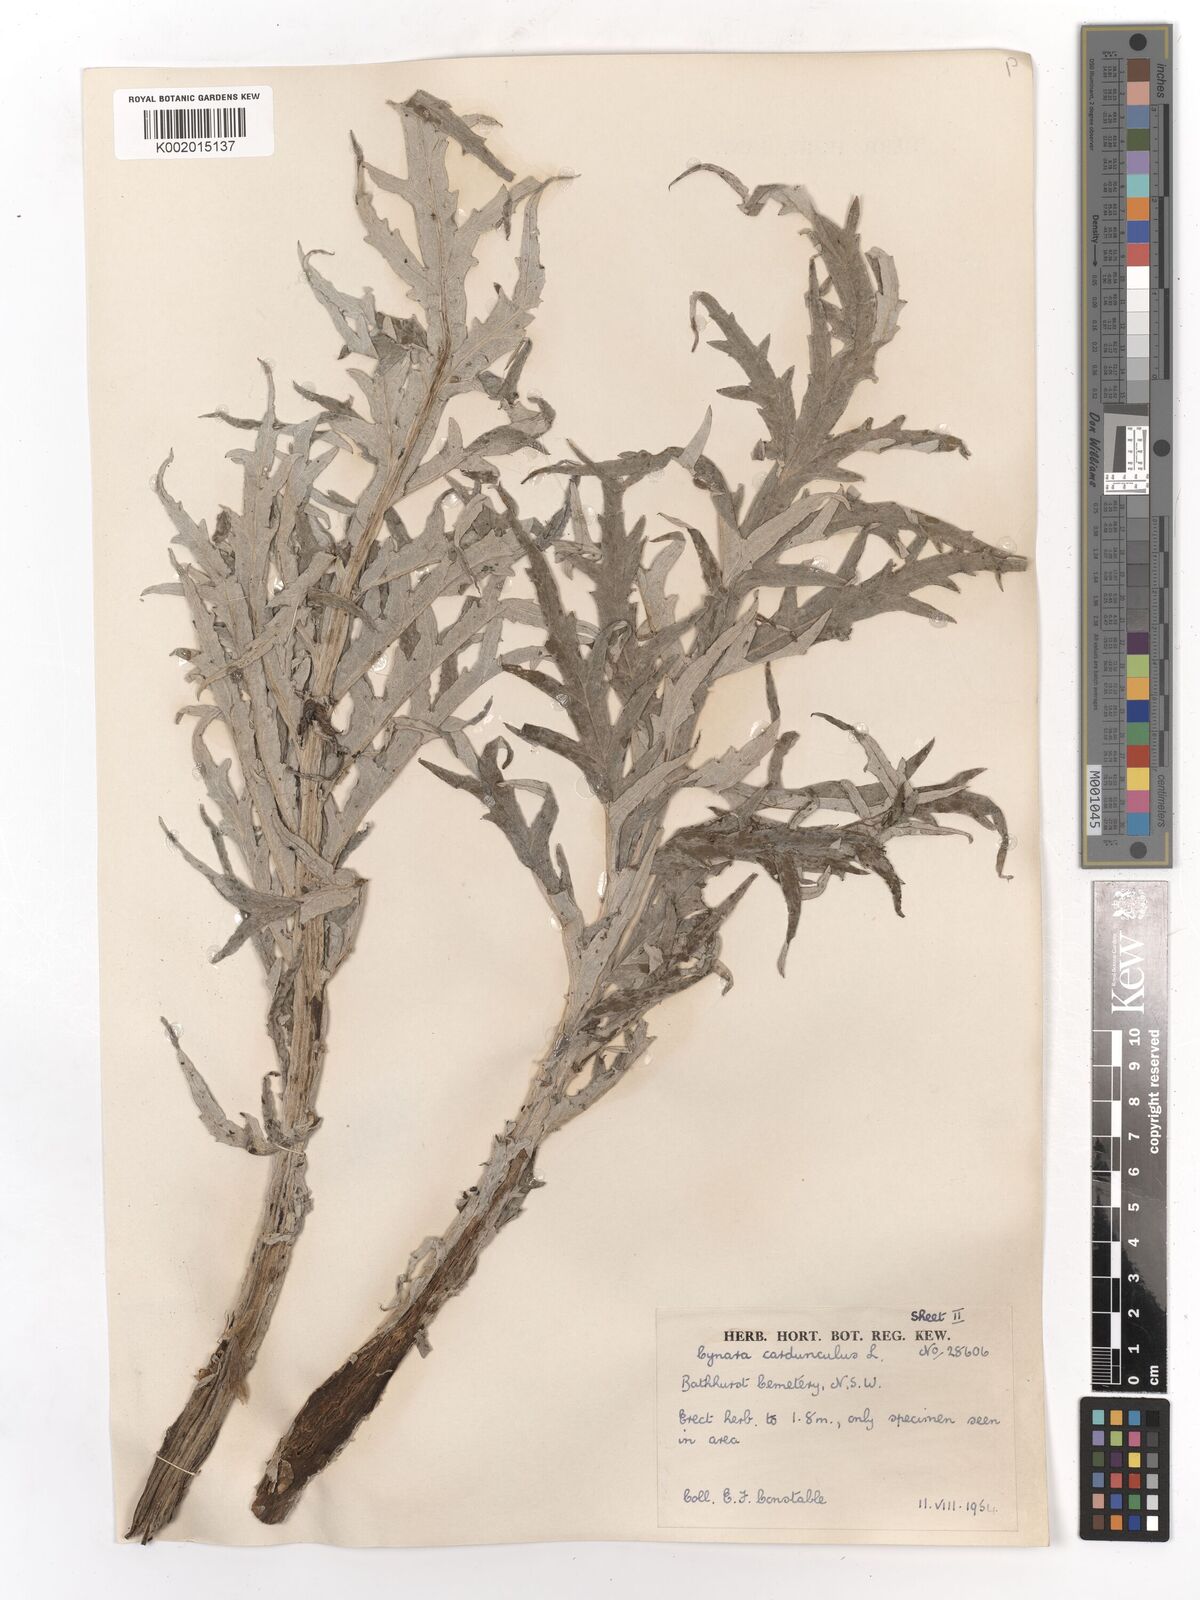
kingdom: Plantae
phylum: Tracheophyta
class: Magnoliopsida
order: Asterales
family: Asteraceae
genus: Cynara
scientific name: Cynara cardunculus
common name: Globe artichoke
